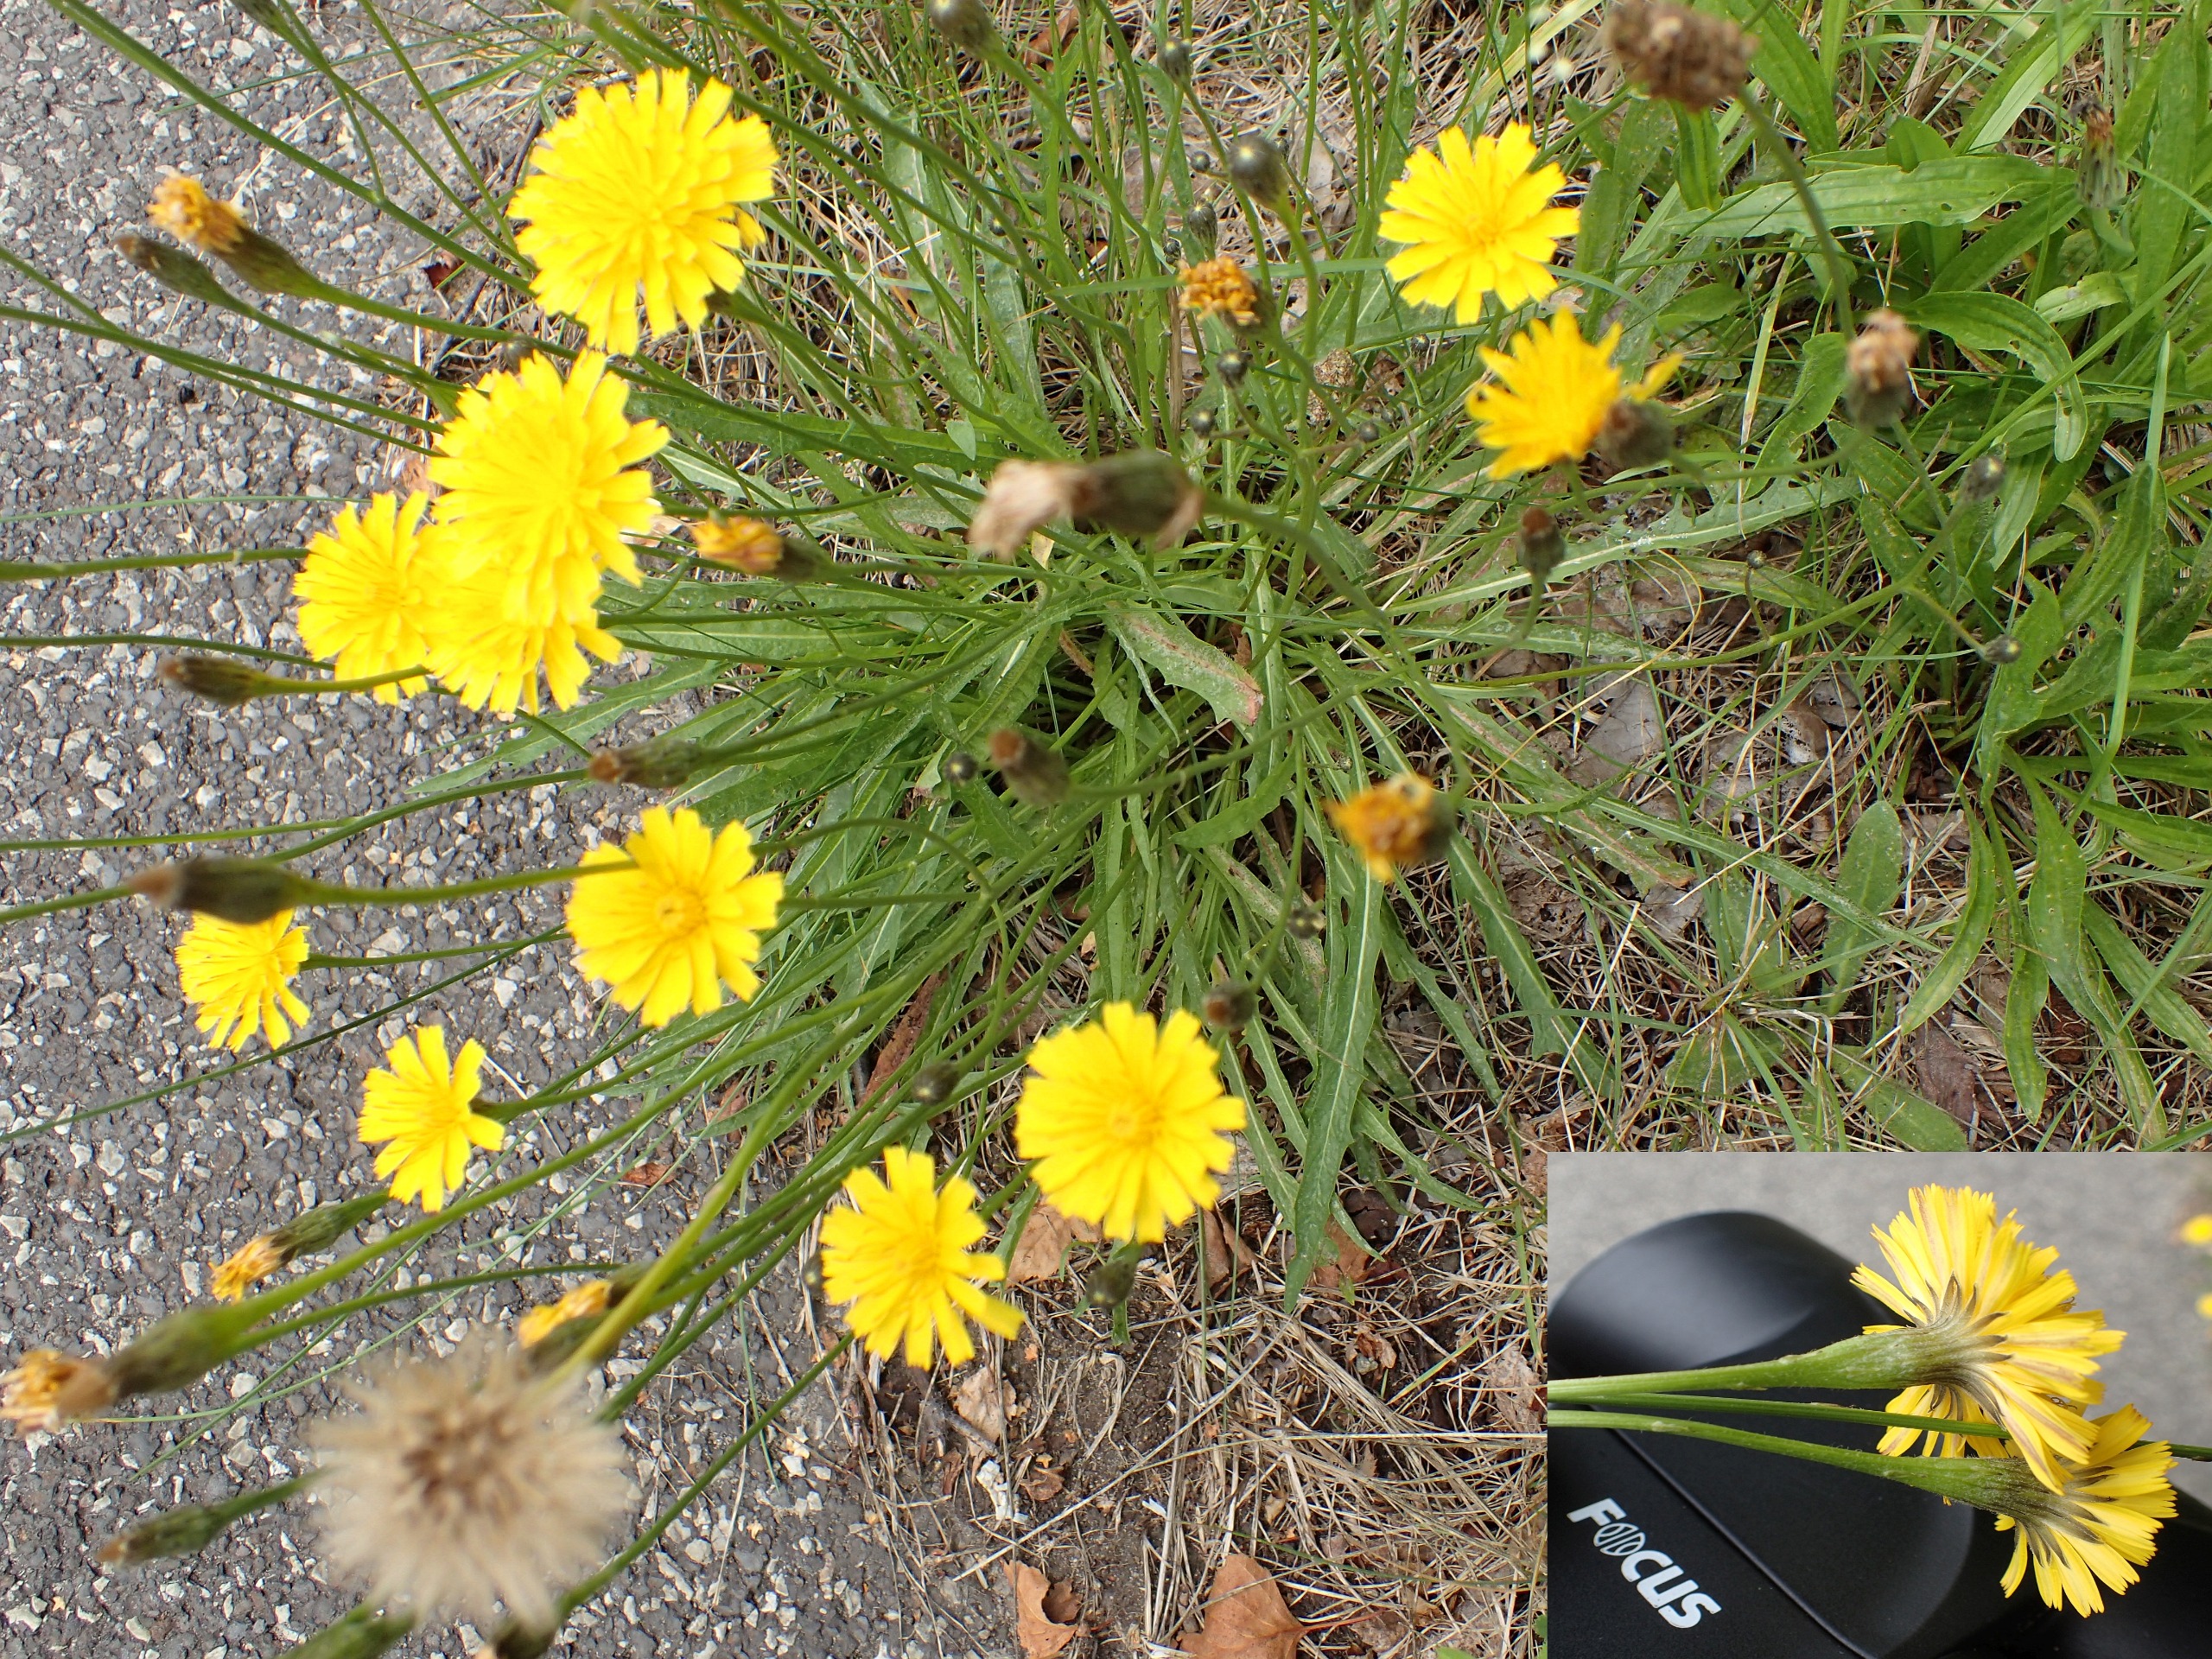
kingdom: Plantae
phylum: Tracheophyta
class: Magnoliopsida
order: Asterales
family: Asteraceae
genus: Scorzoneroides
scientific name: Scorzoneroides autumnalis
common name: Høst-borst
